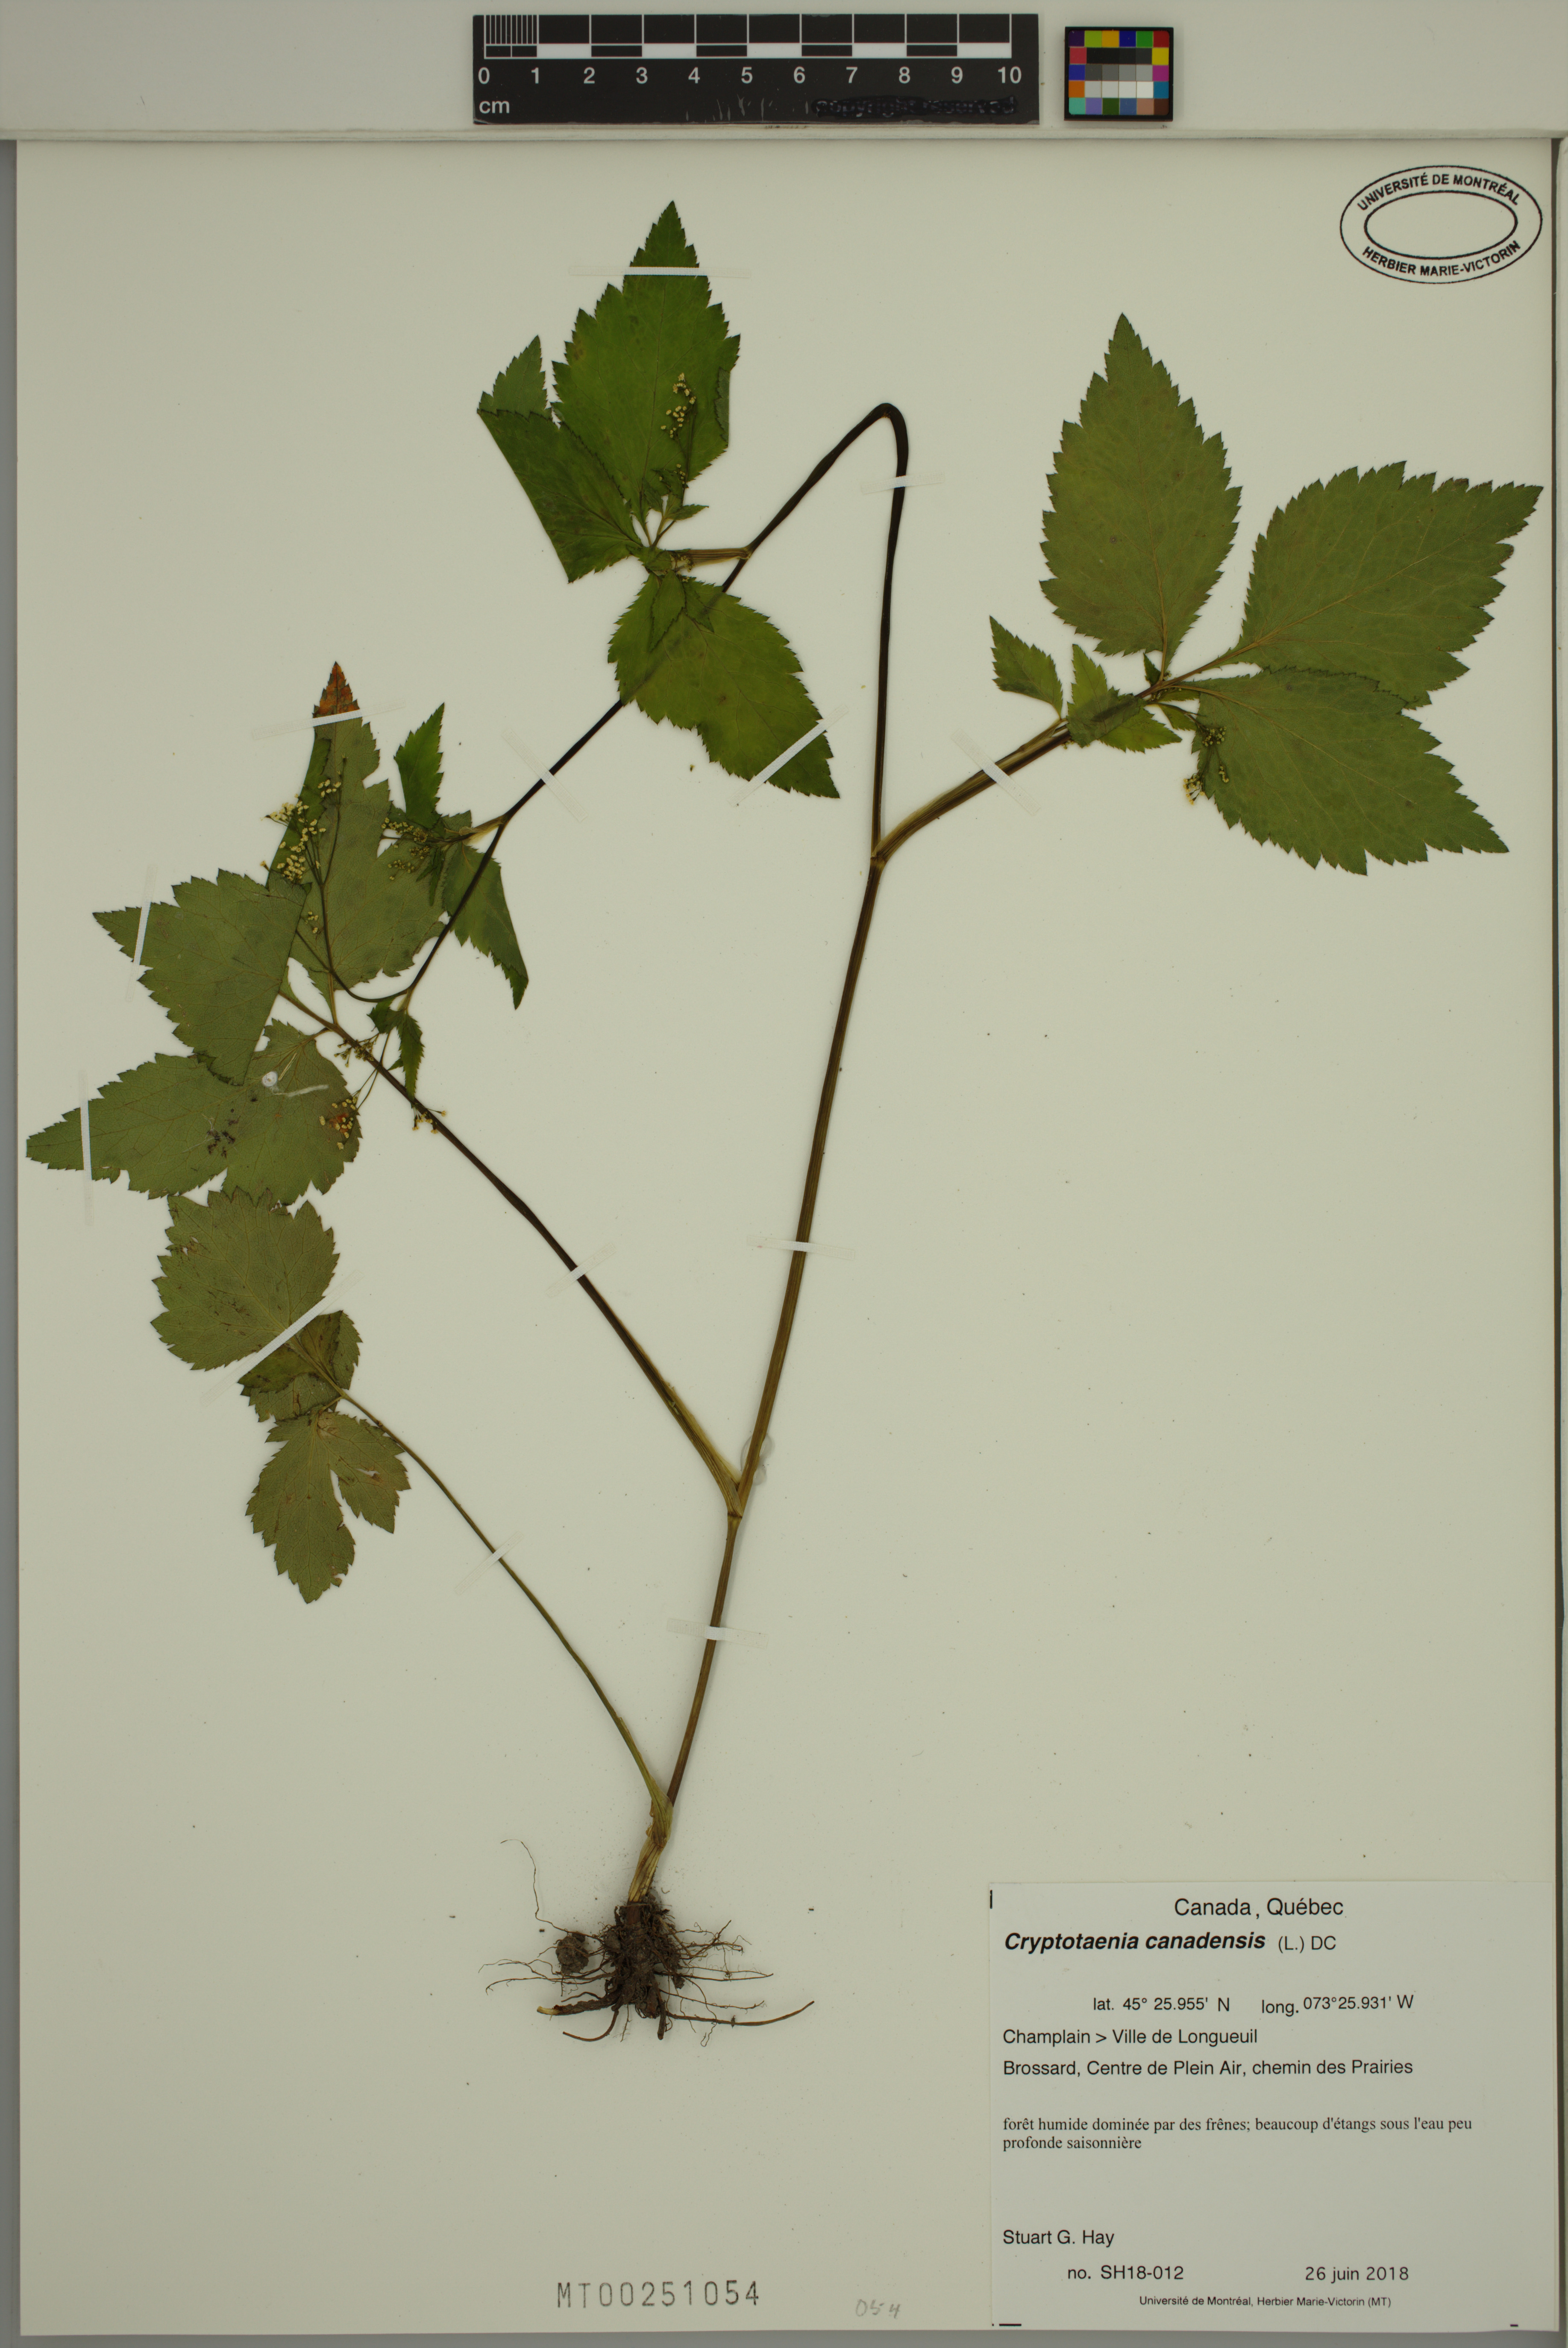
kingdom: Plantae
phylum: Tracheophyta
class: Magnoliopsida
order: Apiales
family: Apiaceae
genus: Cryptotaenia
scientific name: Cryptotaenia canadensis
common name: Honewort
